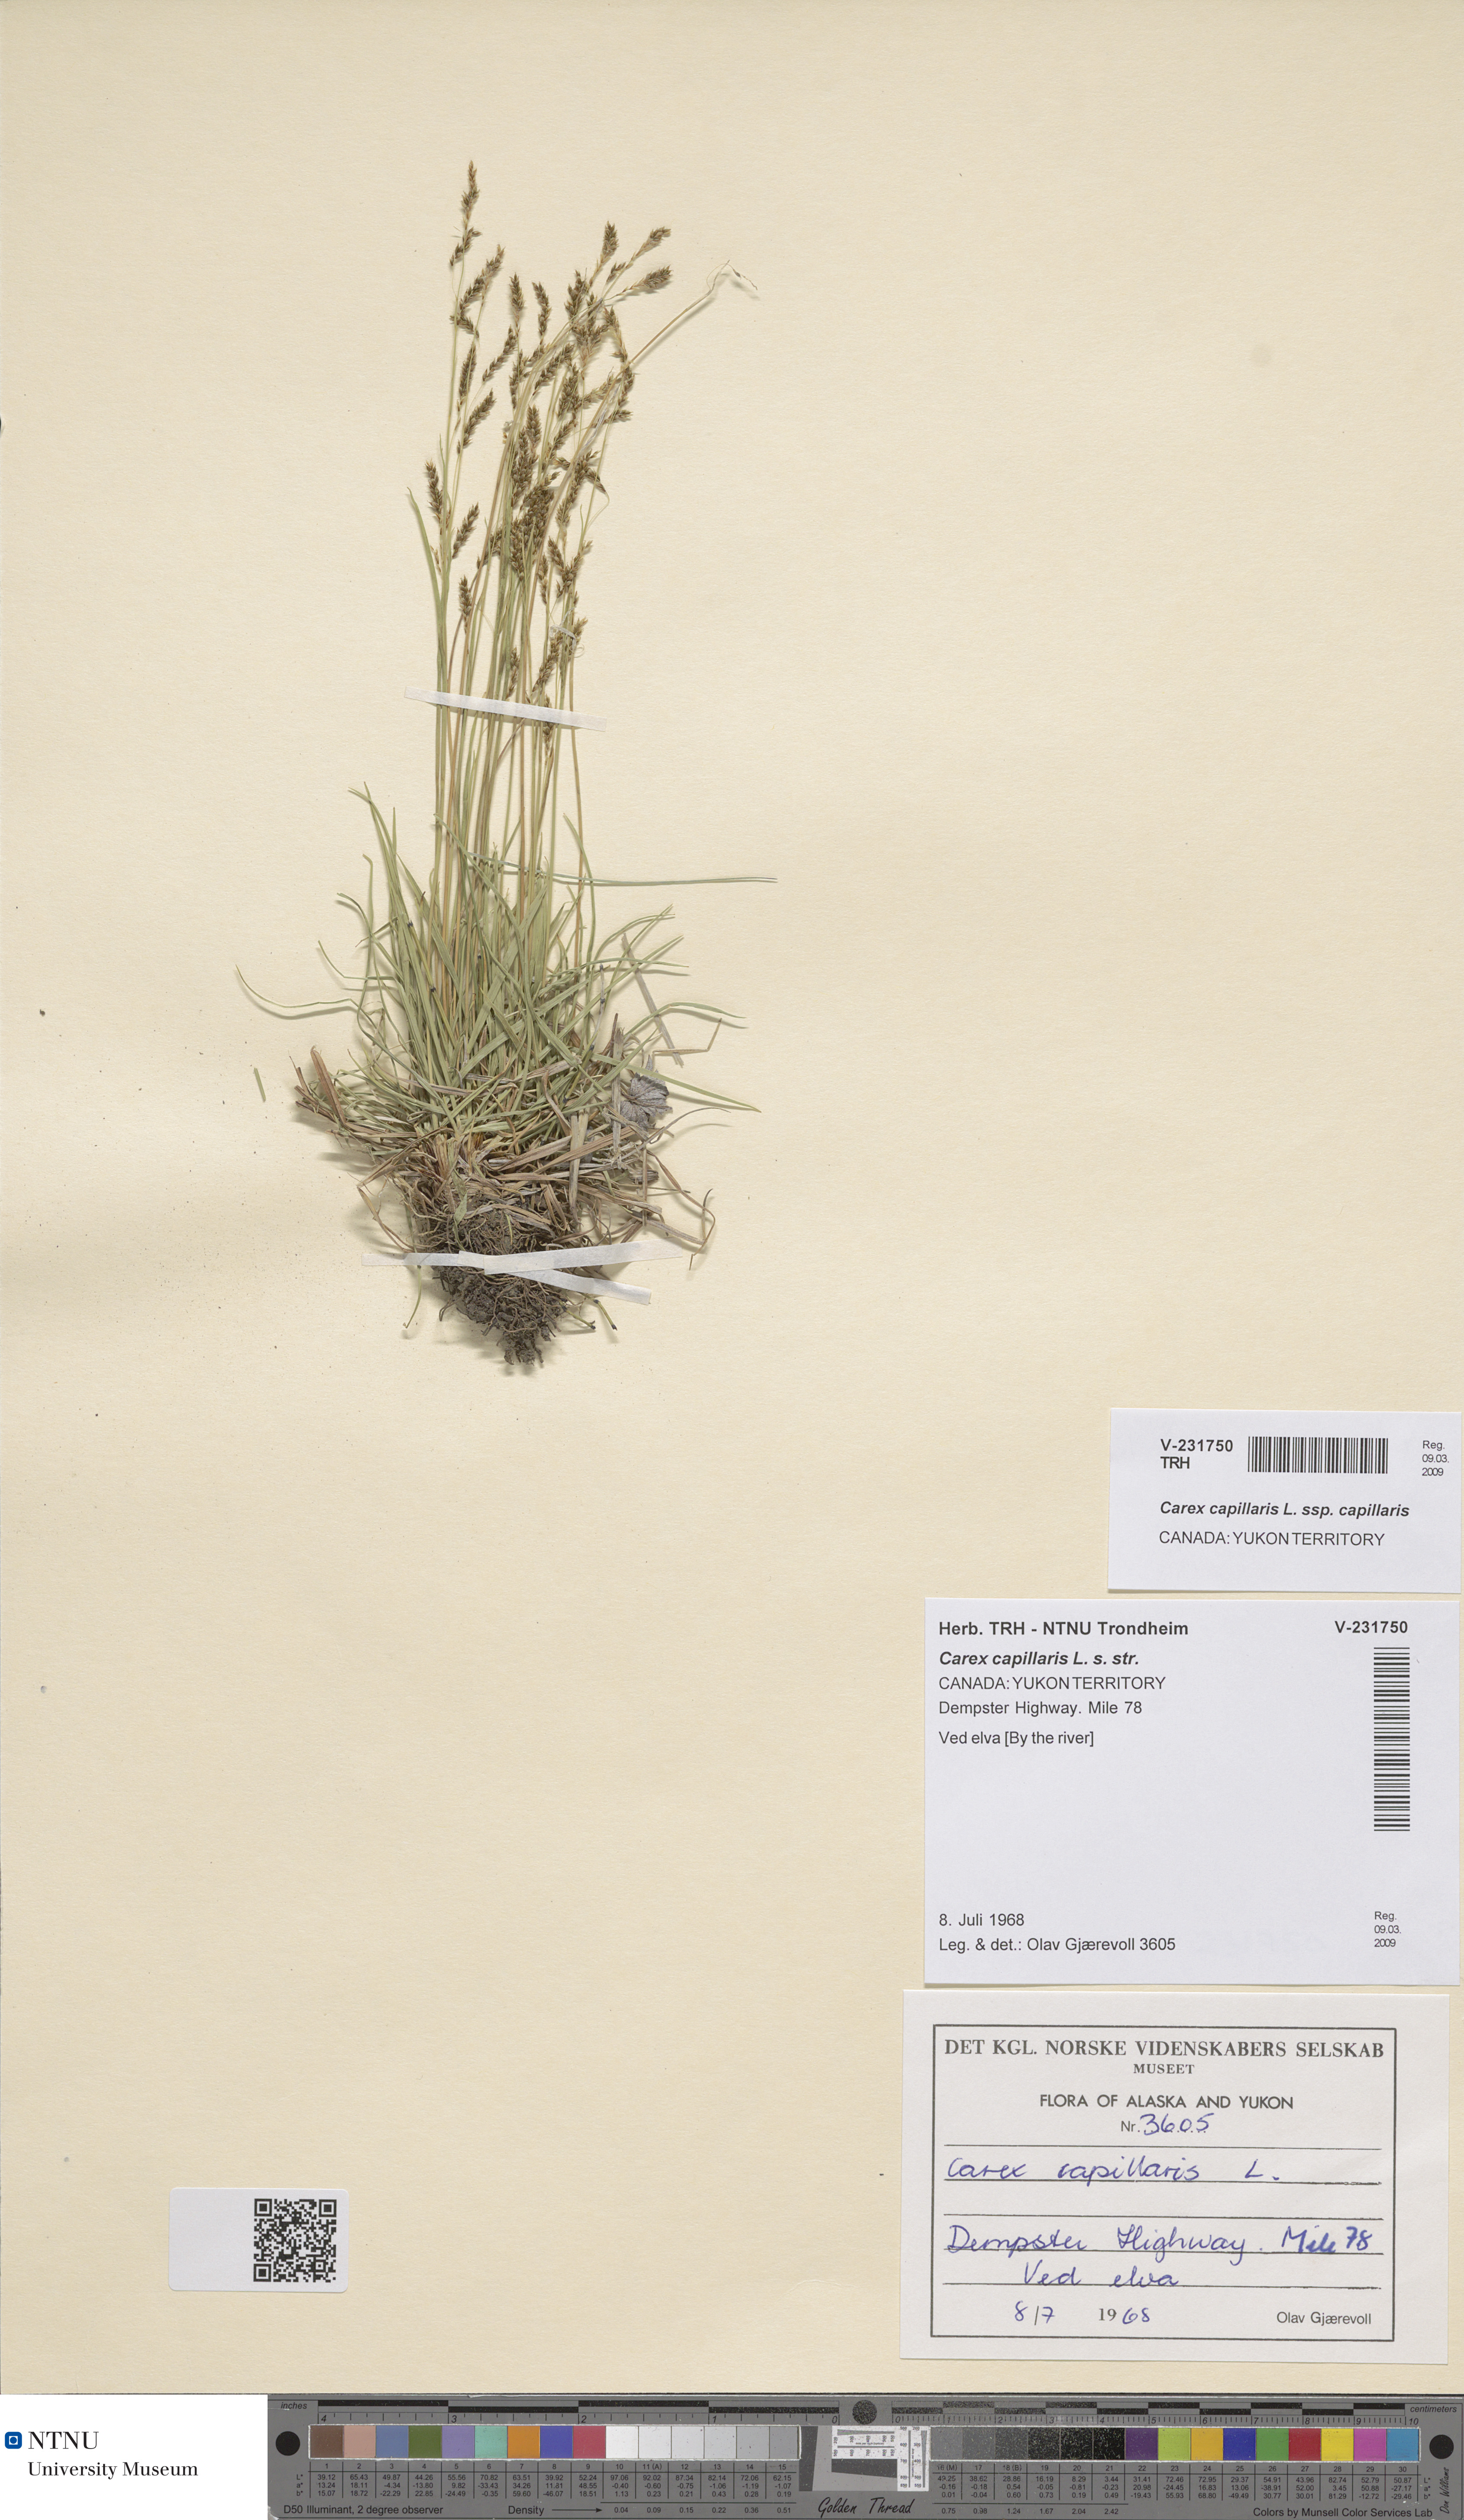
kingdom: Plantae
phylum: Tracheophyta
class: Liliopsida
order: Poales
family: Cyperaceae
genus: Carex
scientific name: Carex capillaris
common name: Hair sedge
